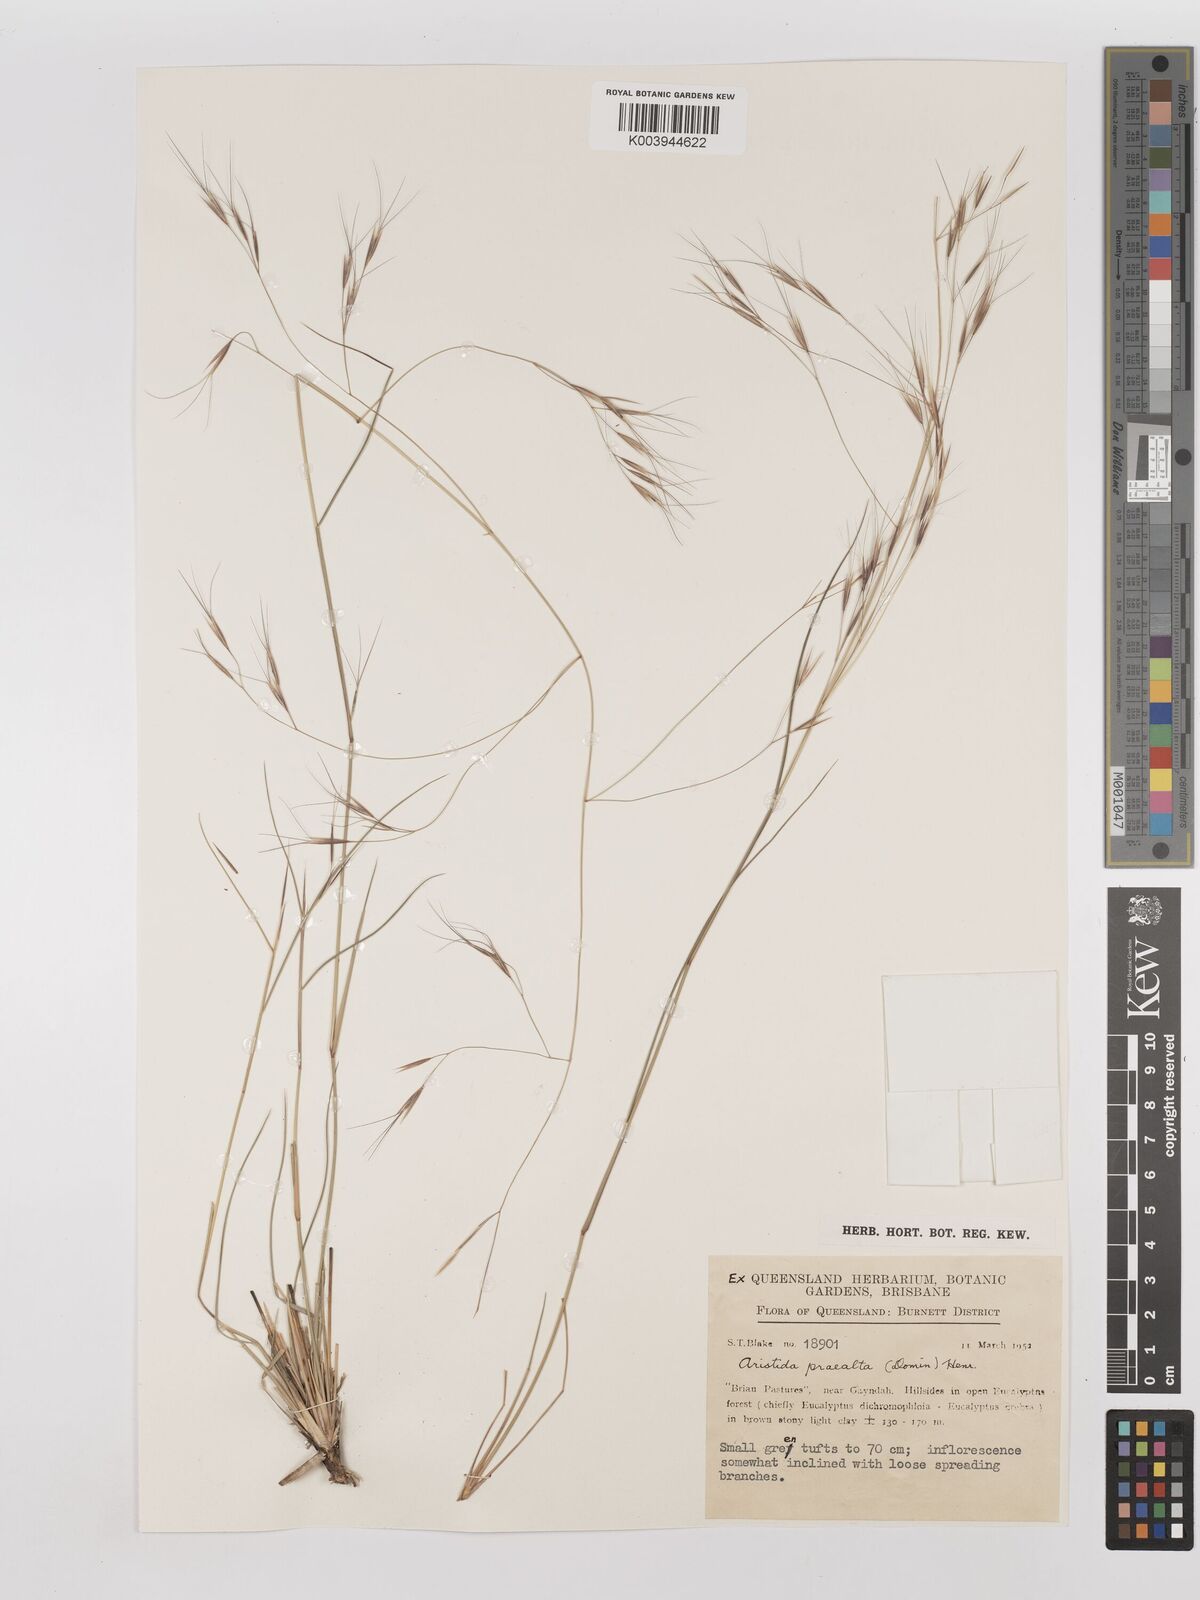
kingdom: Plantae
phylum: Tracheophyta
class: Liliopsida
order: Poales
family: Poaceae
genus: Aristida
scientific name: Aristida calycina
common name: Dark wire grass
